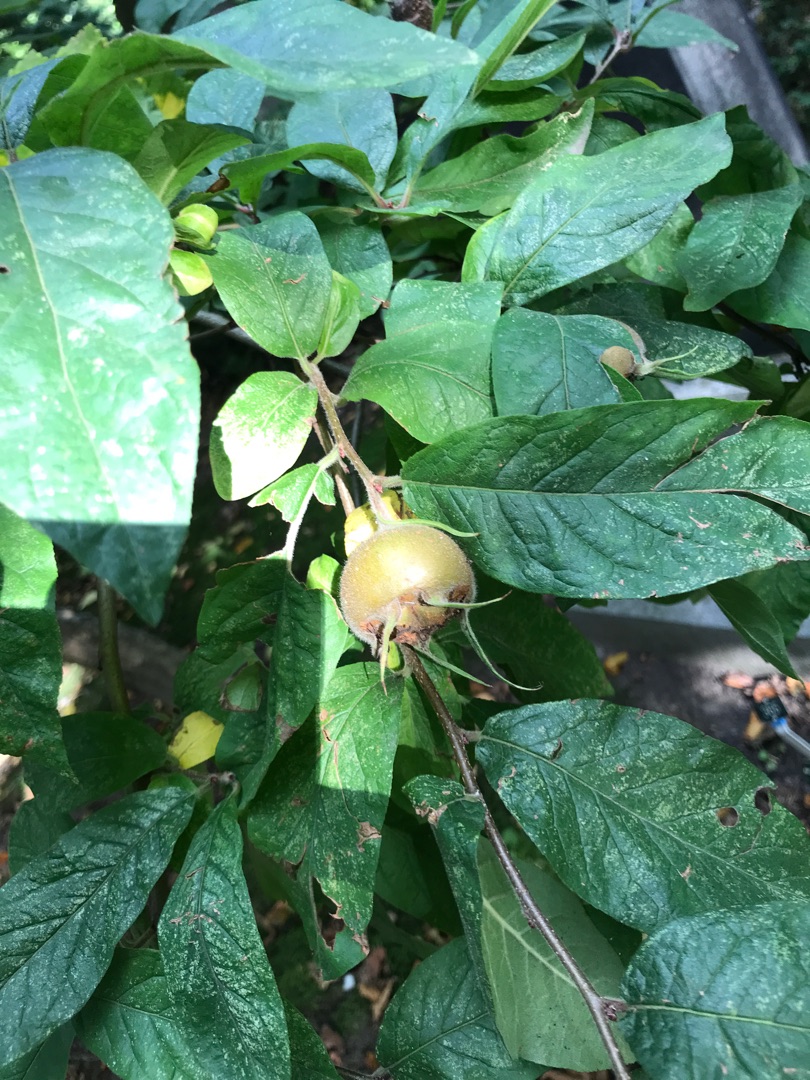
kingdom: Plantae
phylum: Tracheophyta
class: Magnoliopsida
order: Rosales
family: Rosaceae
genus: Mespilus
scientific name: Mespilus germanica
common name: Mispel
